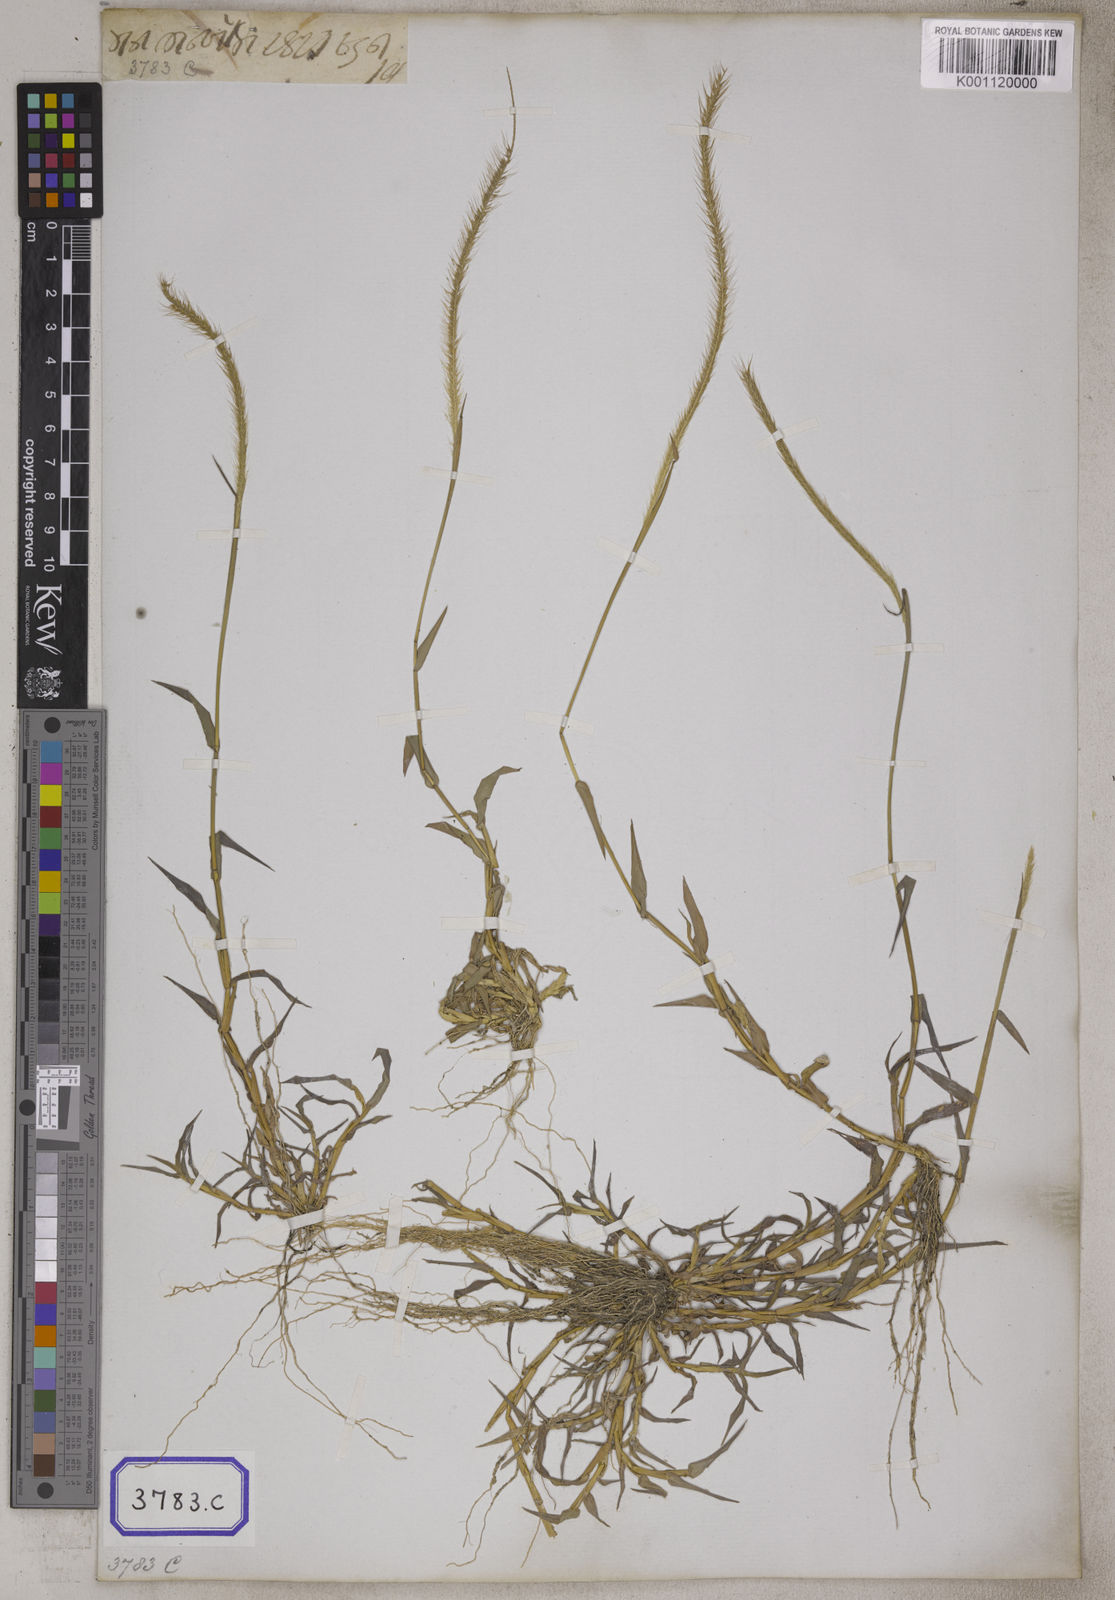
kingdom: Plantae
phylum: Tracheophyta
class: Liliopsida
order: Poales
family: Poaceae
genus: Perotis
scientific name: Perotis indica
